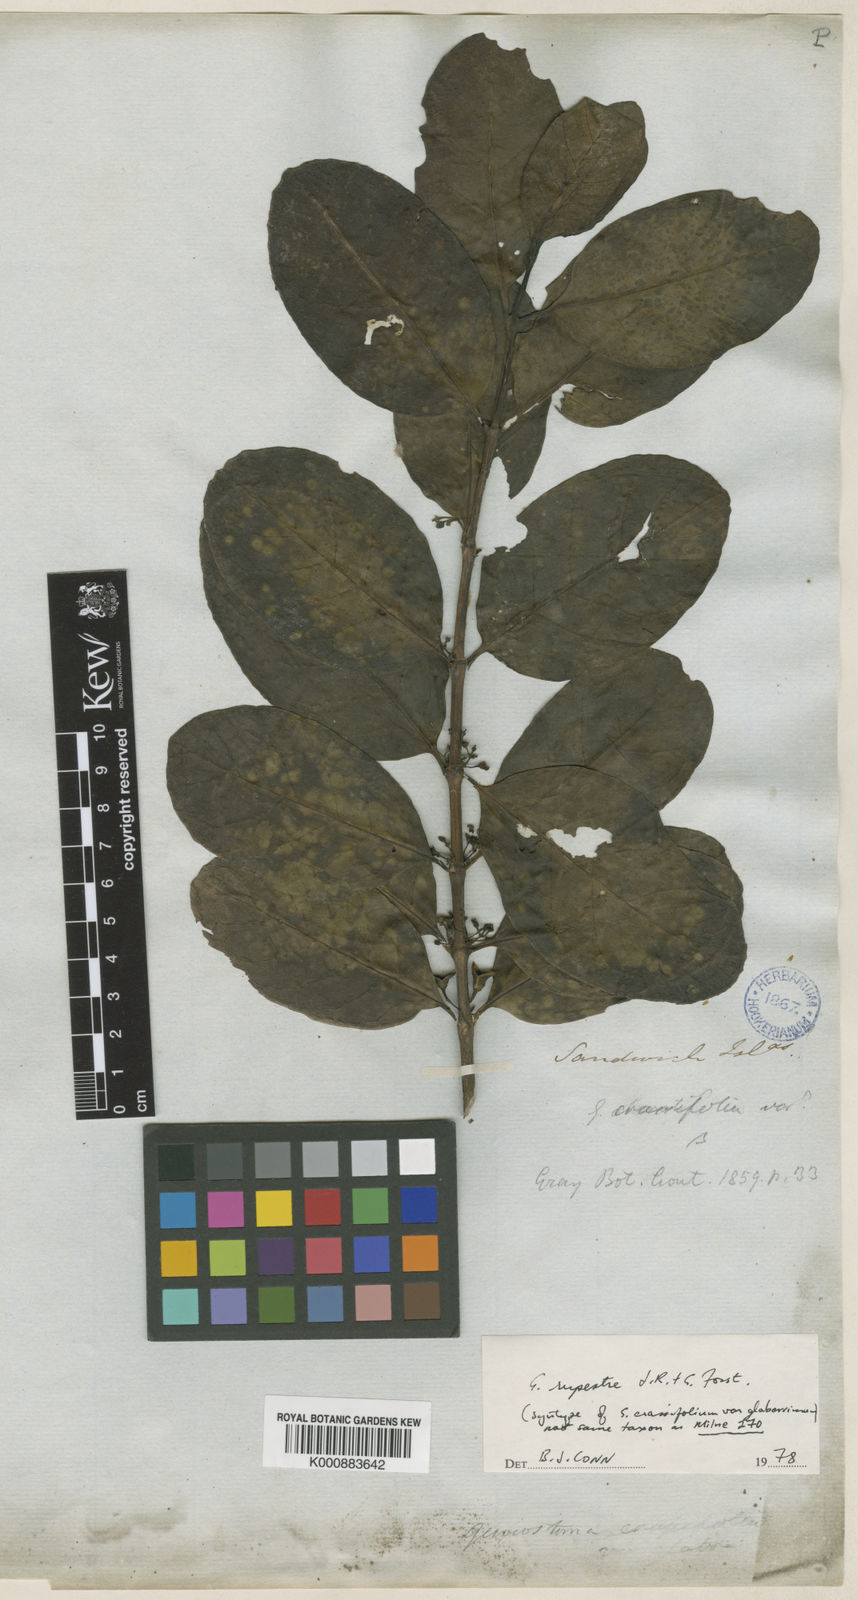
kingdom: Plantae
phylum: Tracheophyta
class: Magnoliopsida
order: Gentianales
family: Loganiaceae
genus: Geniostoma
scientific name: Geniostoma rupestre
